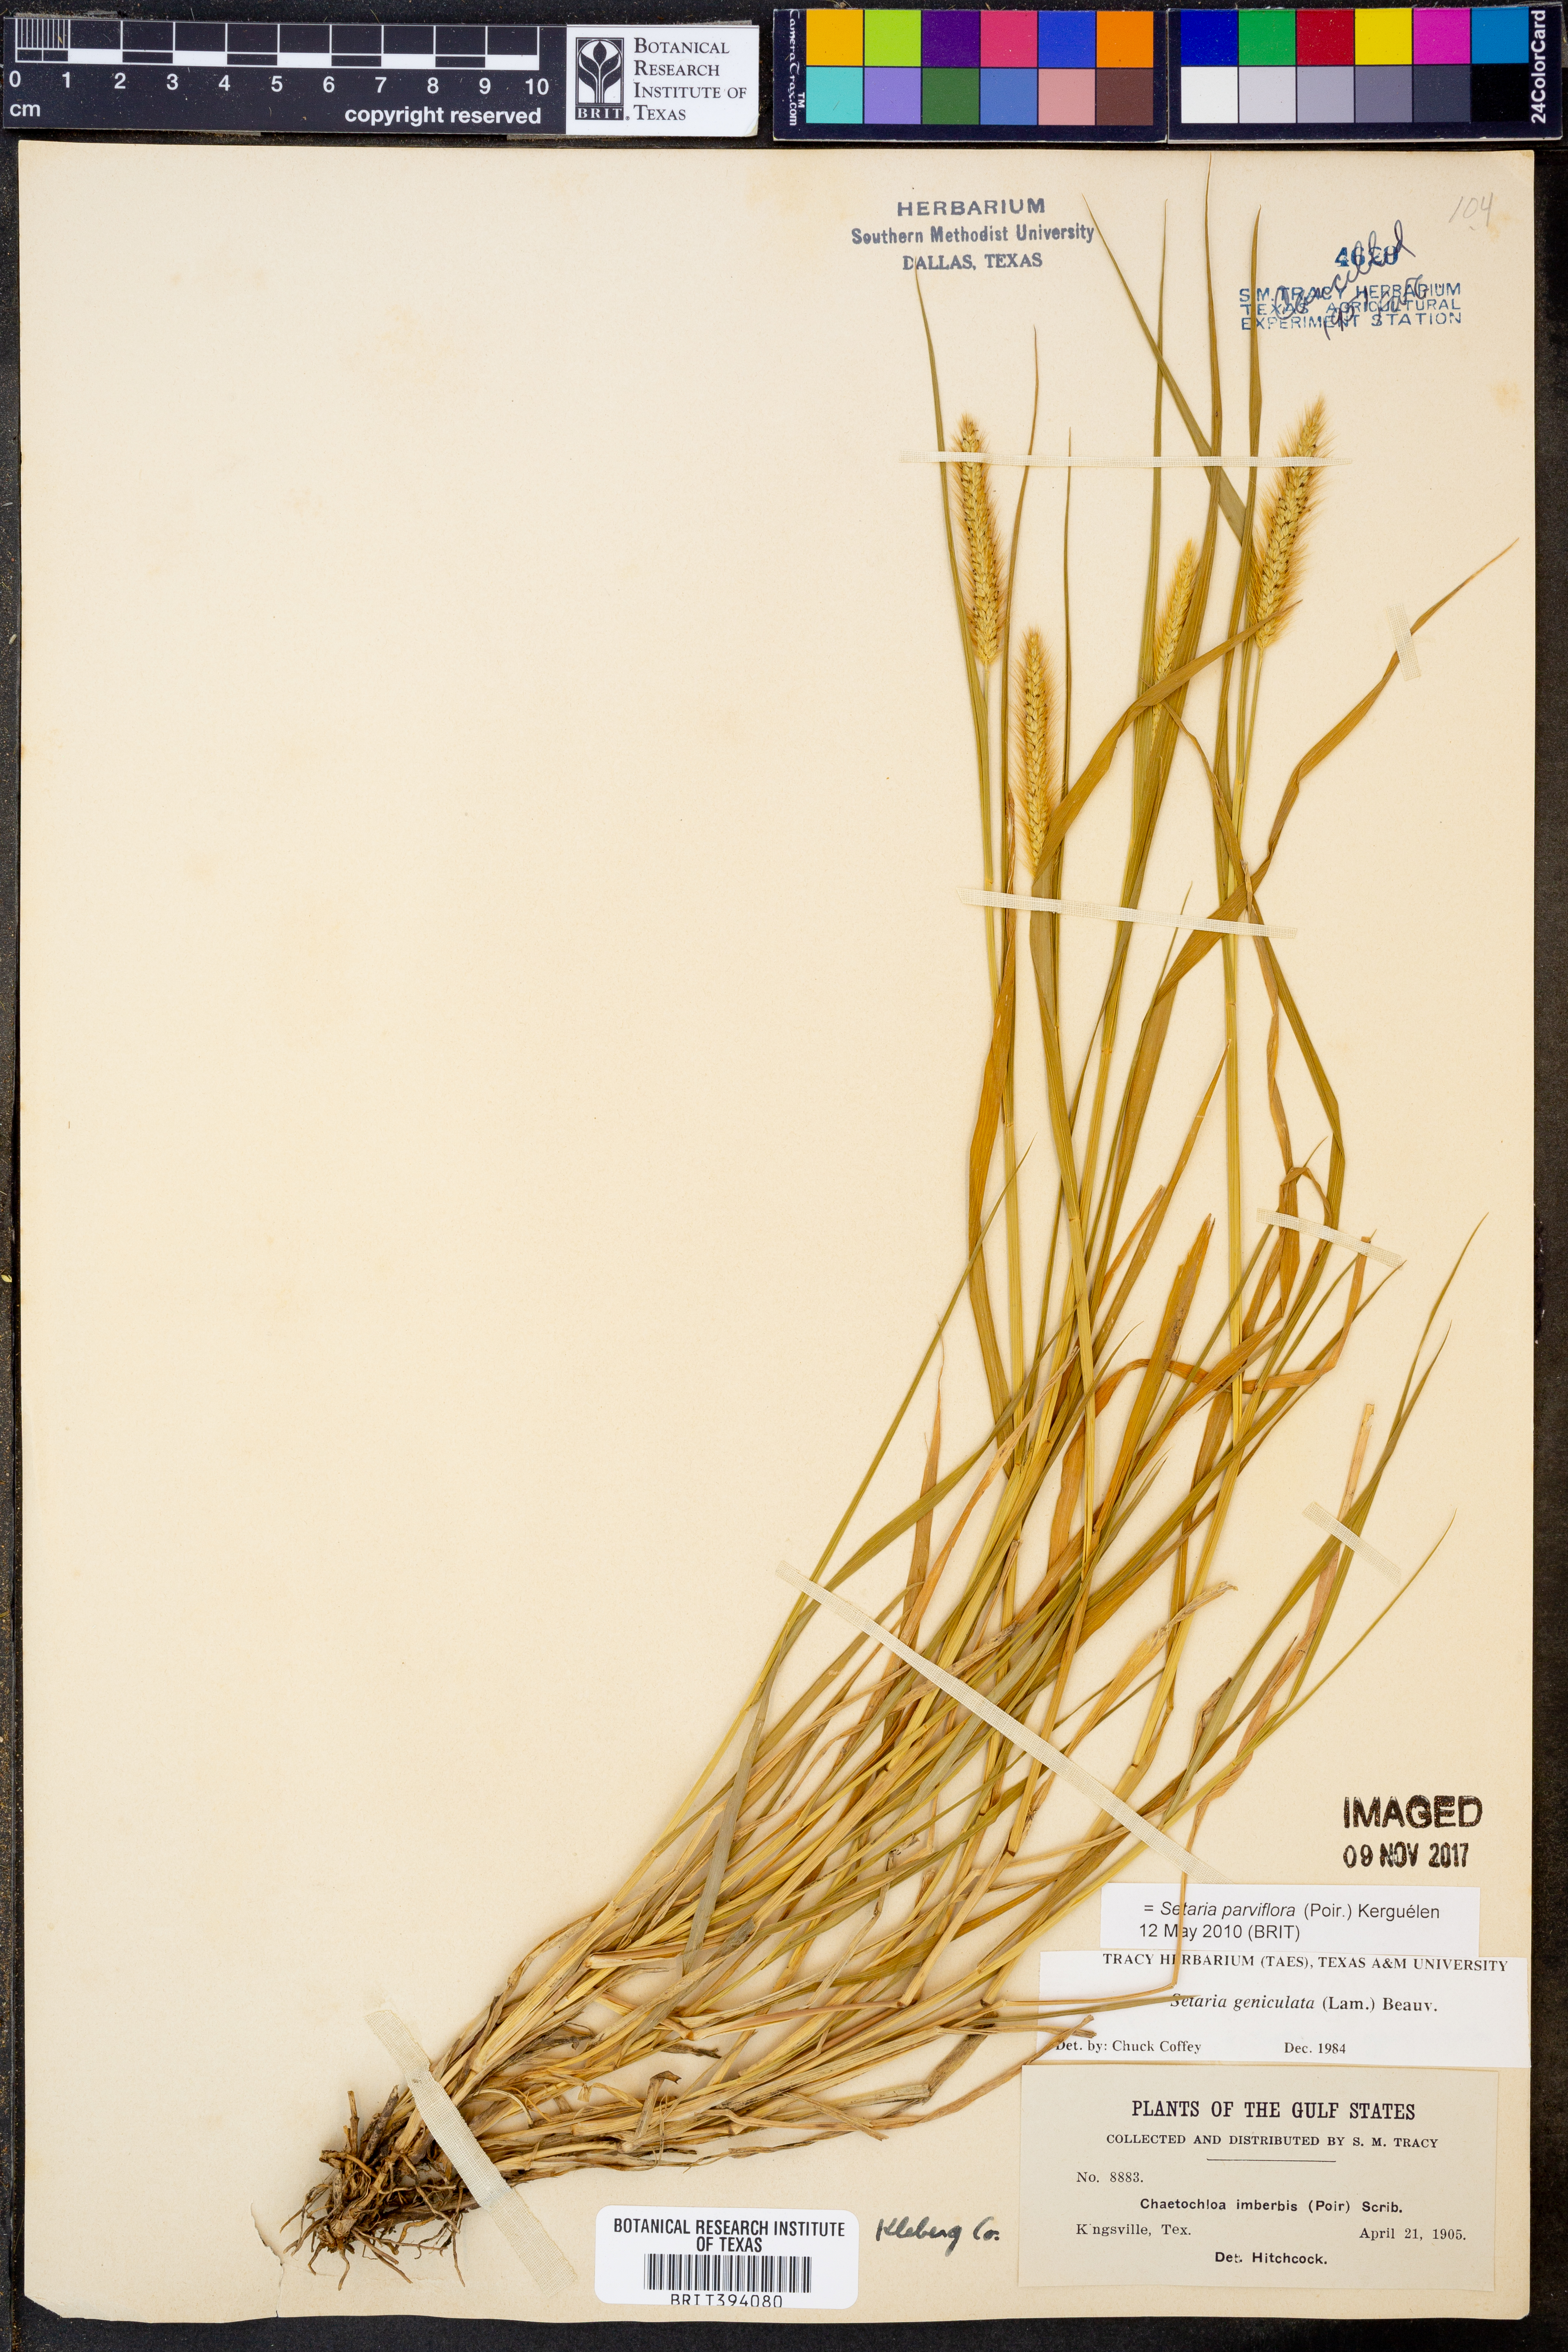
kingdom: Plantae
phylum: Tracheophyta
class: Liliopsida
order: Poales
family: Poaceae
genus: Setaria
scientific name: Setaria parviflora
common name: Knotroot bristle-grass
